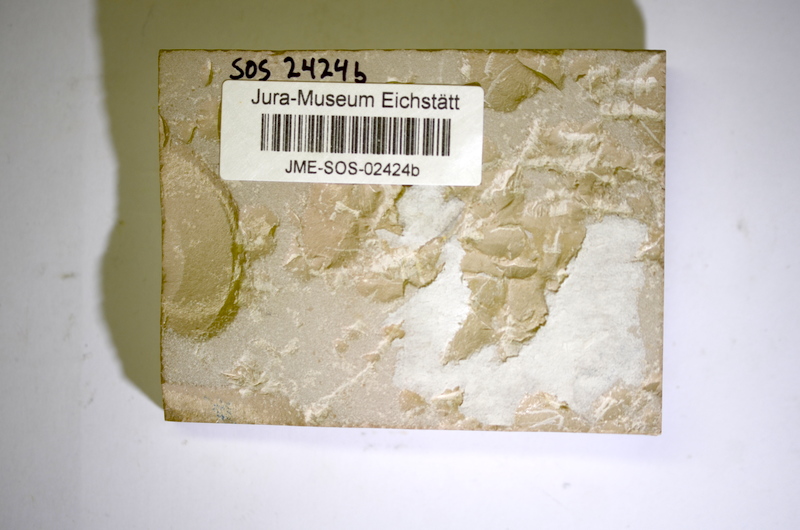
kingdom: Animalia
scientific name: Animalia
